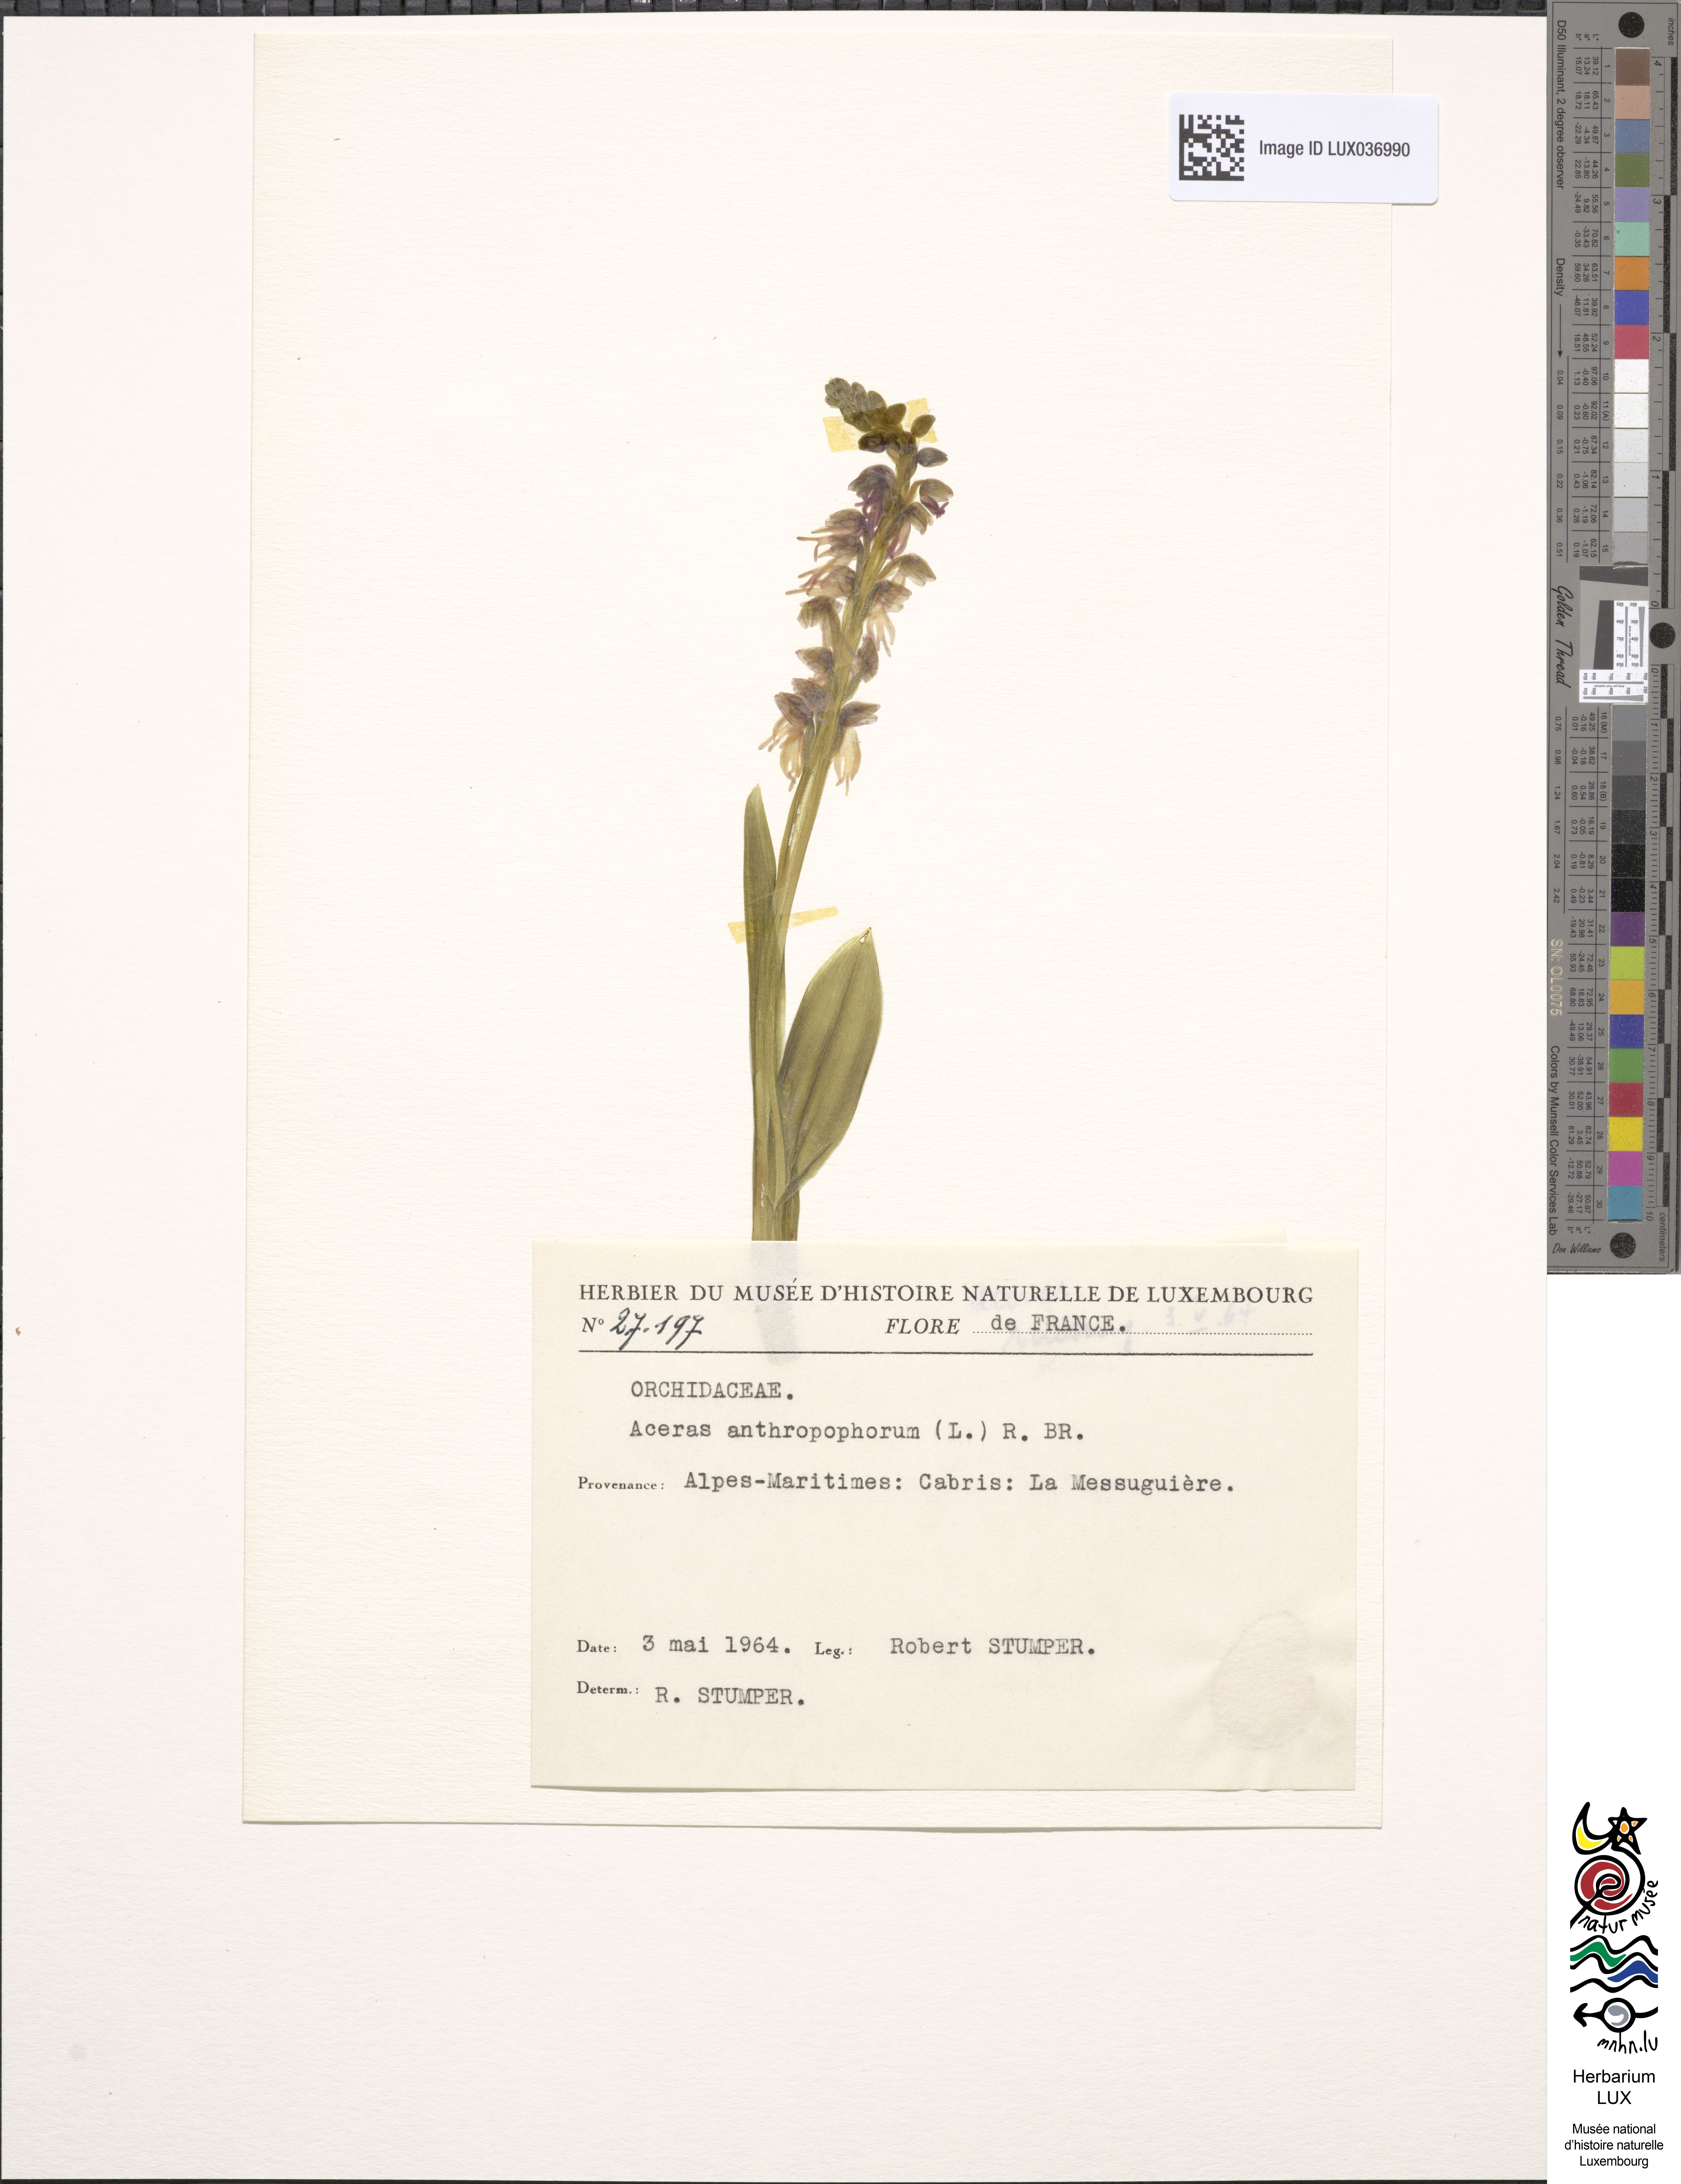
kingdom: Plantae
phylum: Tracheophyta
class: Liliopsida
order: Asparagales
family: Orchidaceae
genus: Orchis
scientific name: Orchis anthropophora
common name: Man orchid
